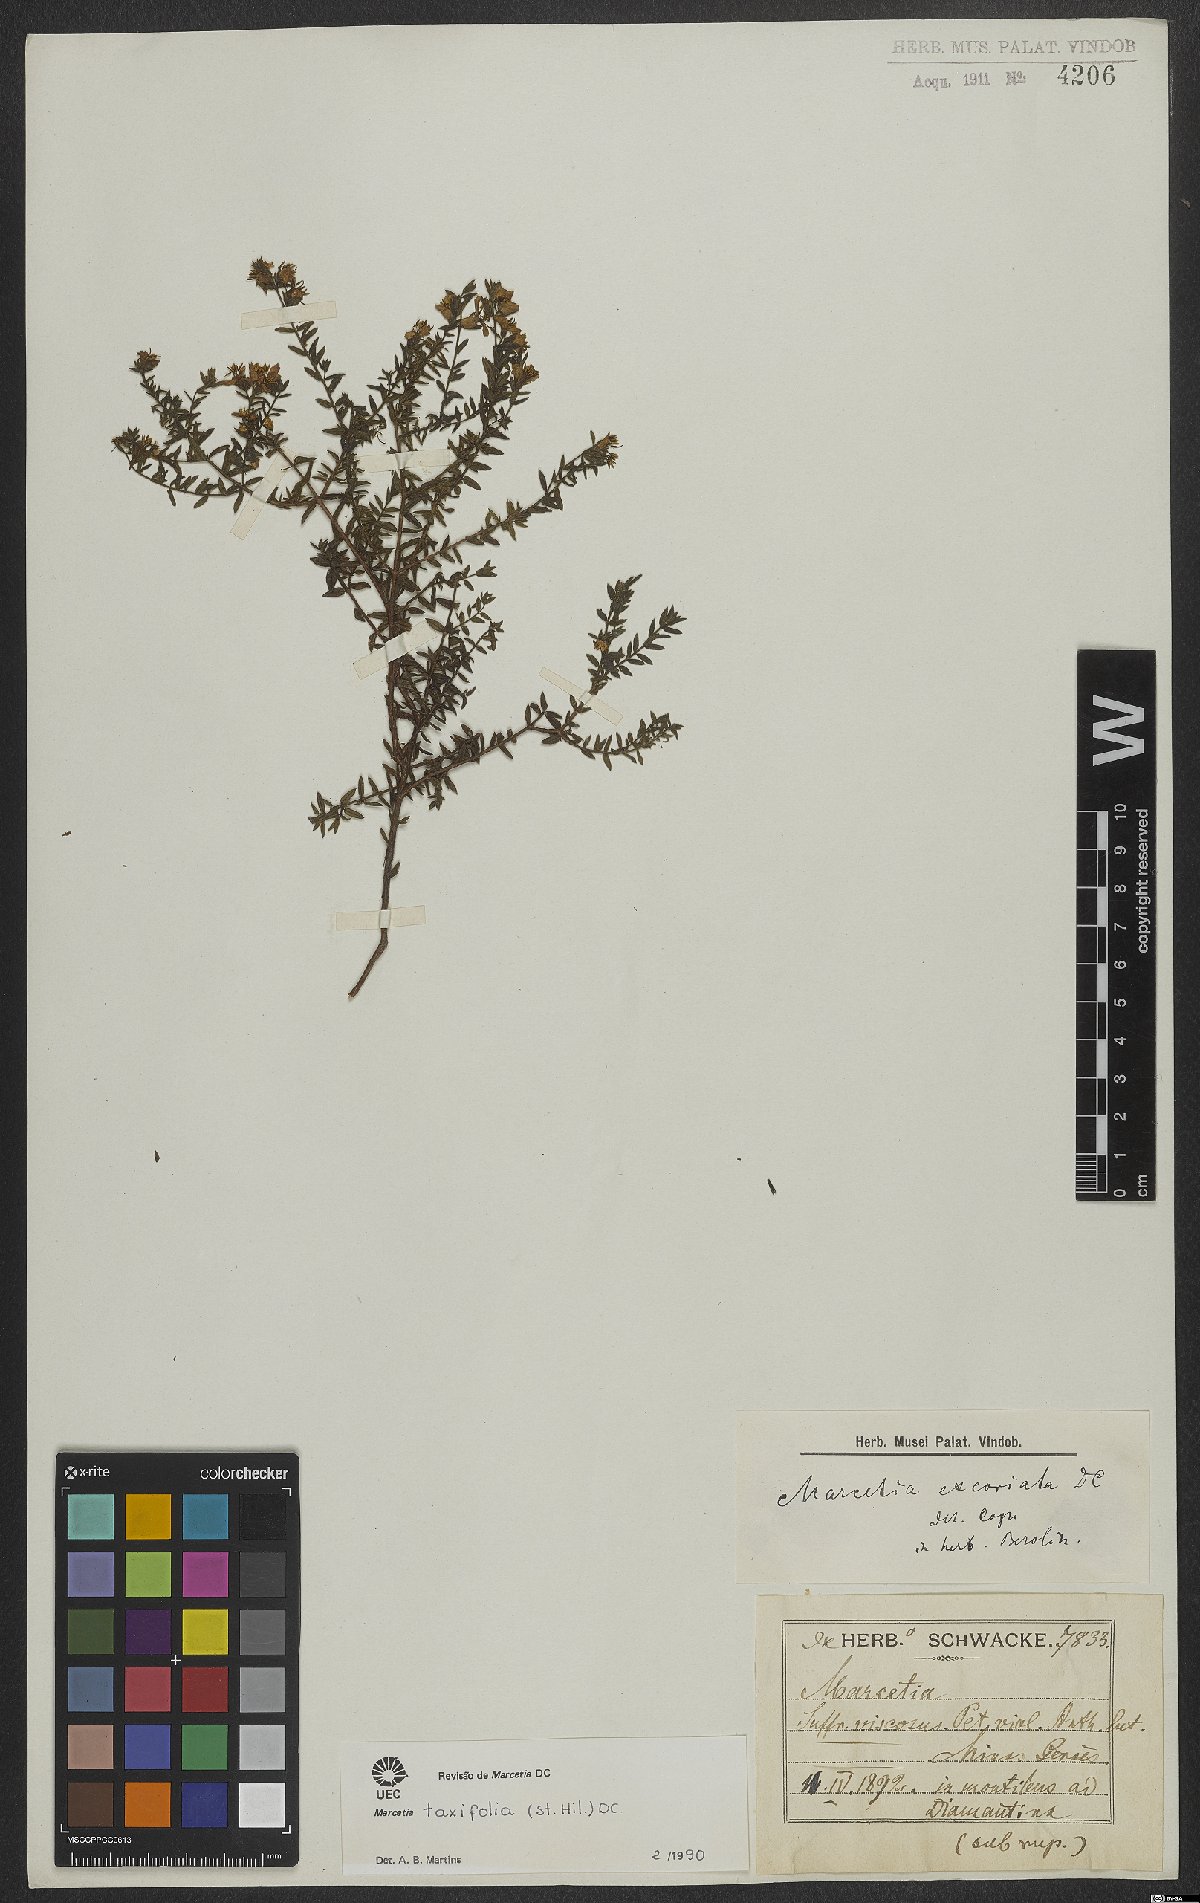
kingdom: Plantae
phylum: Tracheophyta
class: Magnoliopsida
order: Myrtales
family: Melastomataceae
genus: Marcetia
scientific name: Marcetia taxifolia
